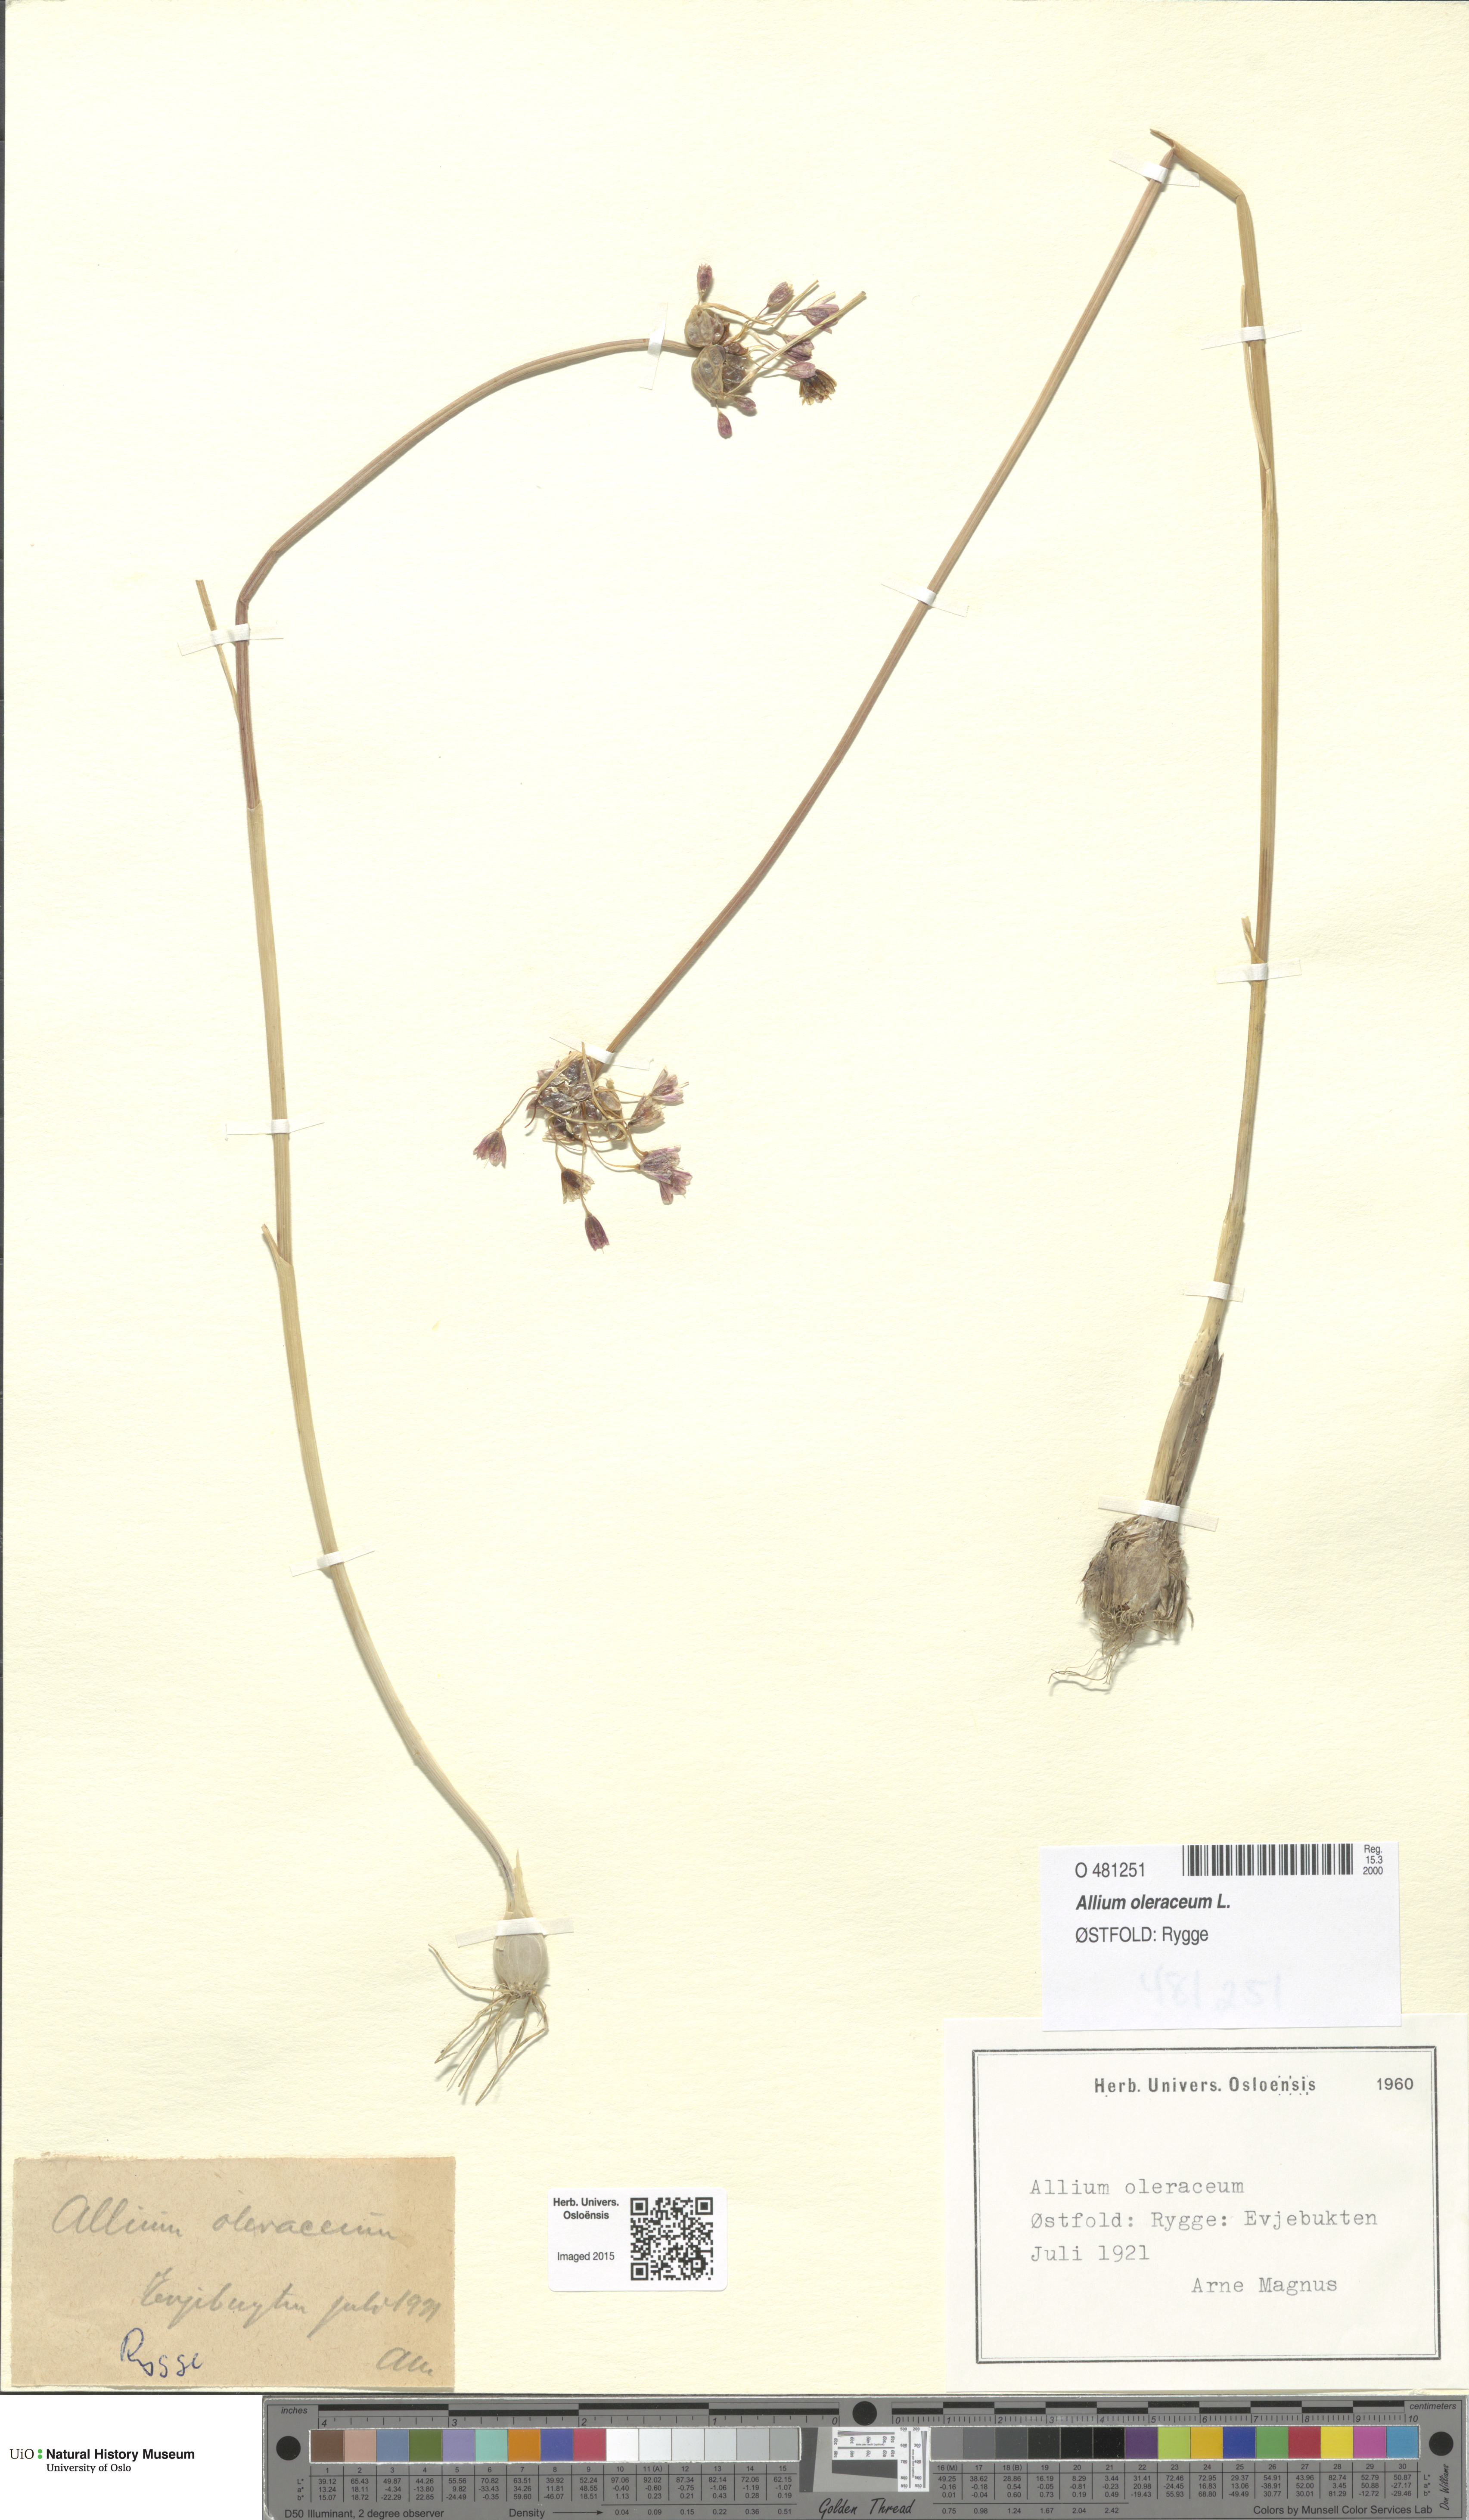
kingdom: Plantae
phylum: Tracheophyta
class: Liliopsida
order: Asparagales
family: Amaryllidaceae
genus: Allium
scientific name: Allium oleraceum
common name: Field garlic
